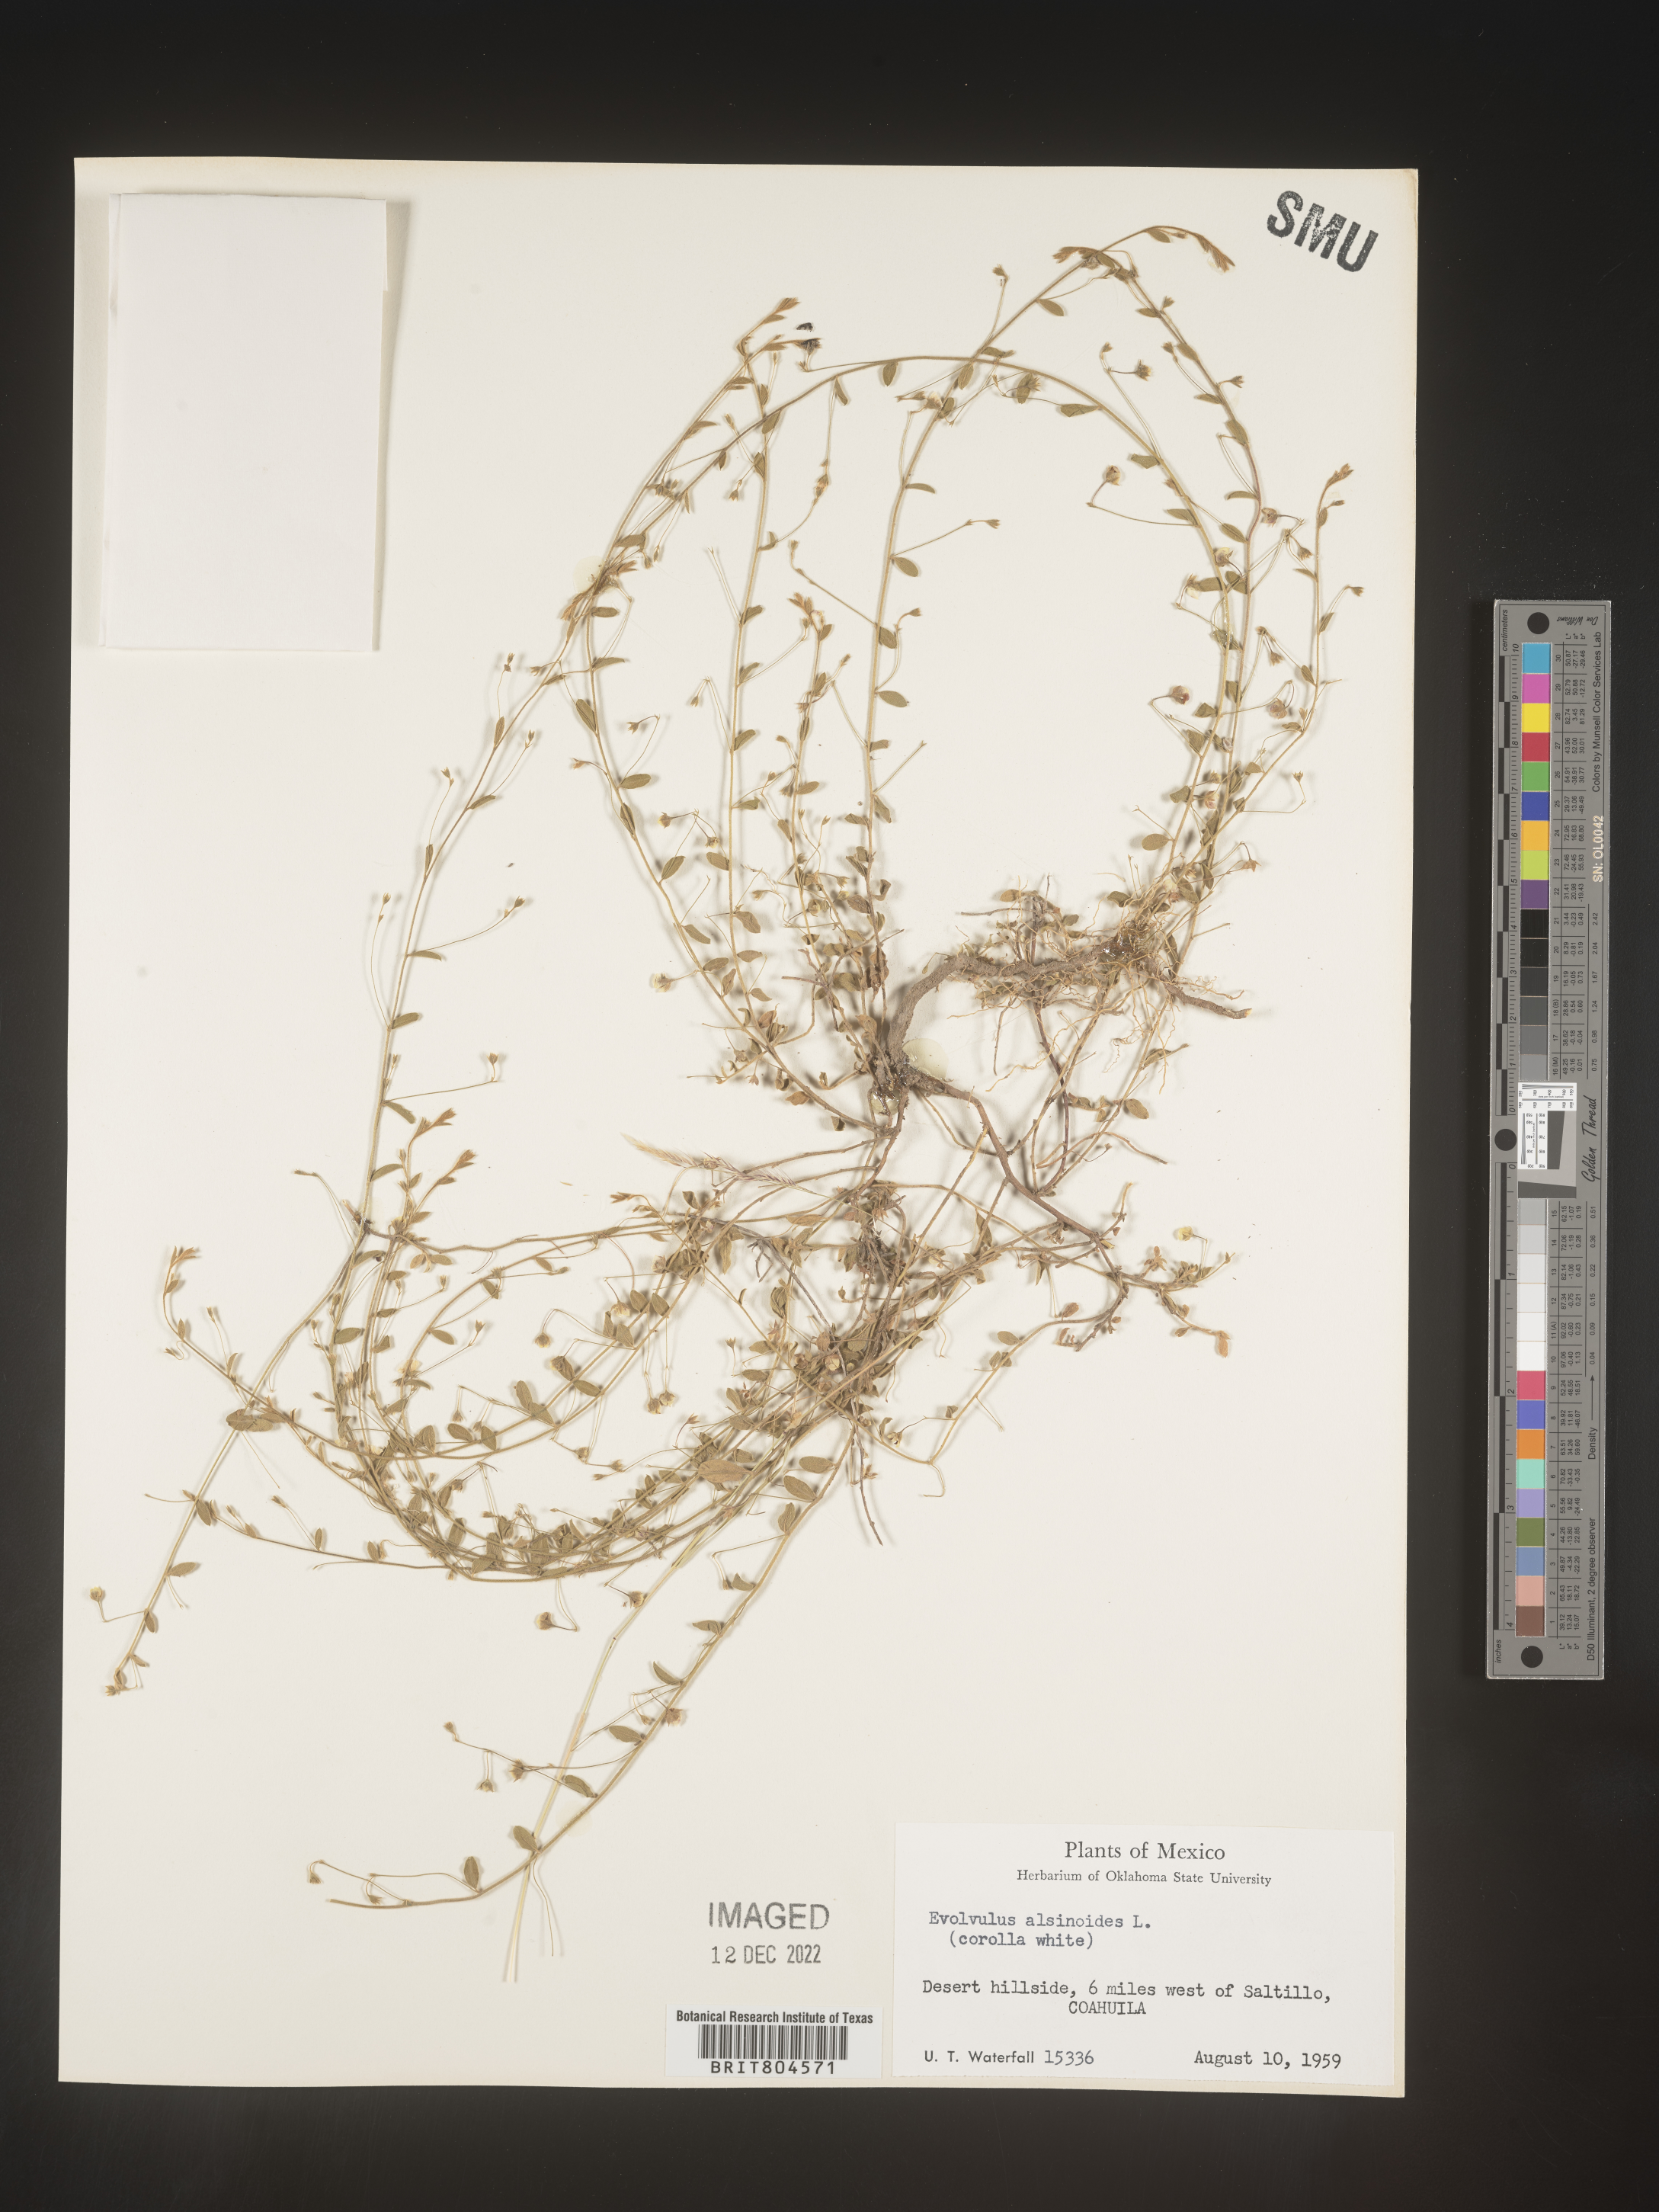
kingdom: Plantae
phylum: Tracheophyta
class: Magnoliopsida
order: Solanales
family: Convolvulaceae
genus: Evolvulus
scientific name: Evolvulus
